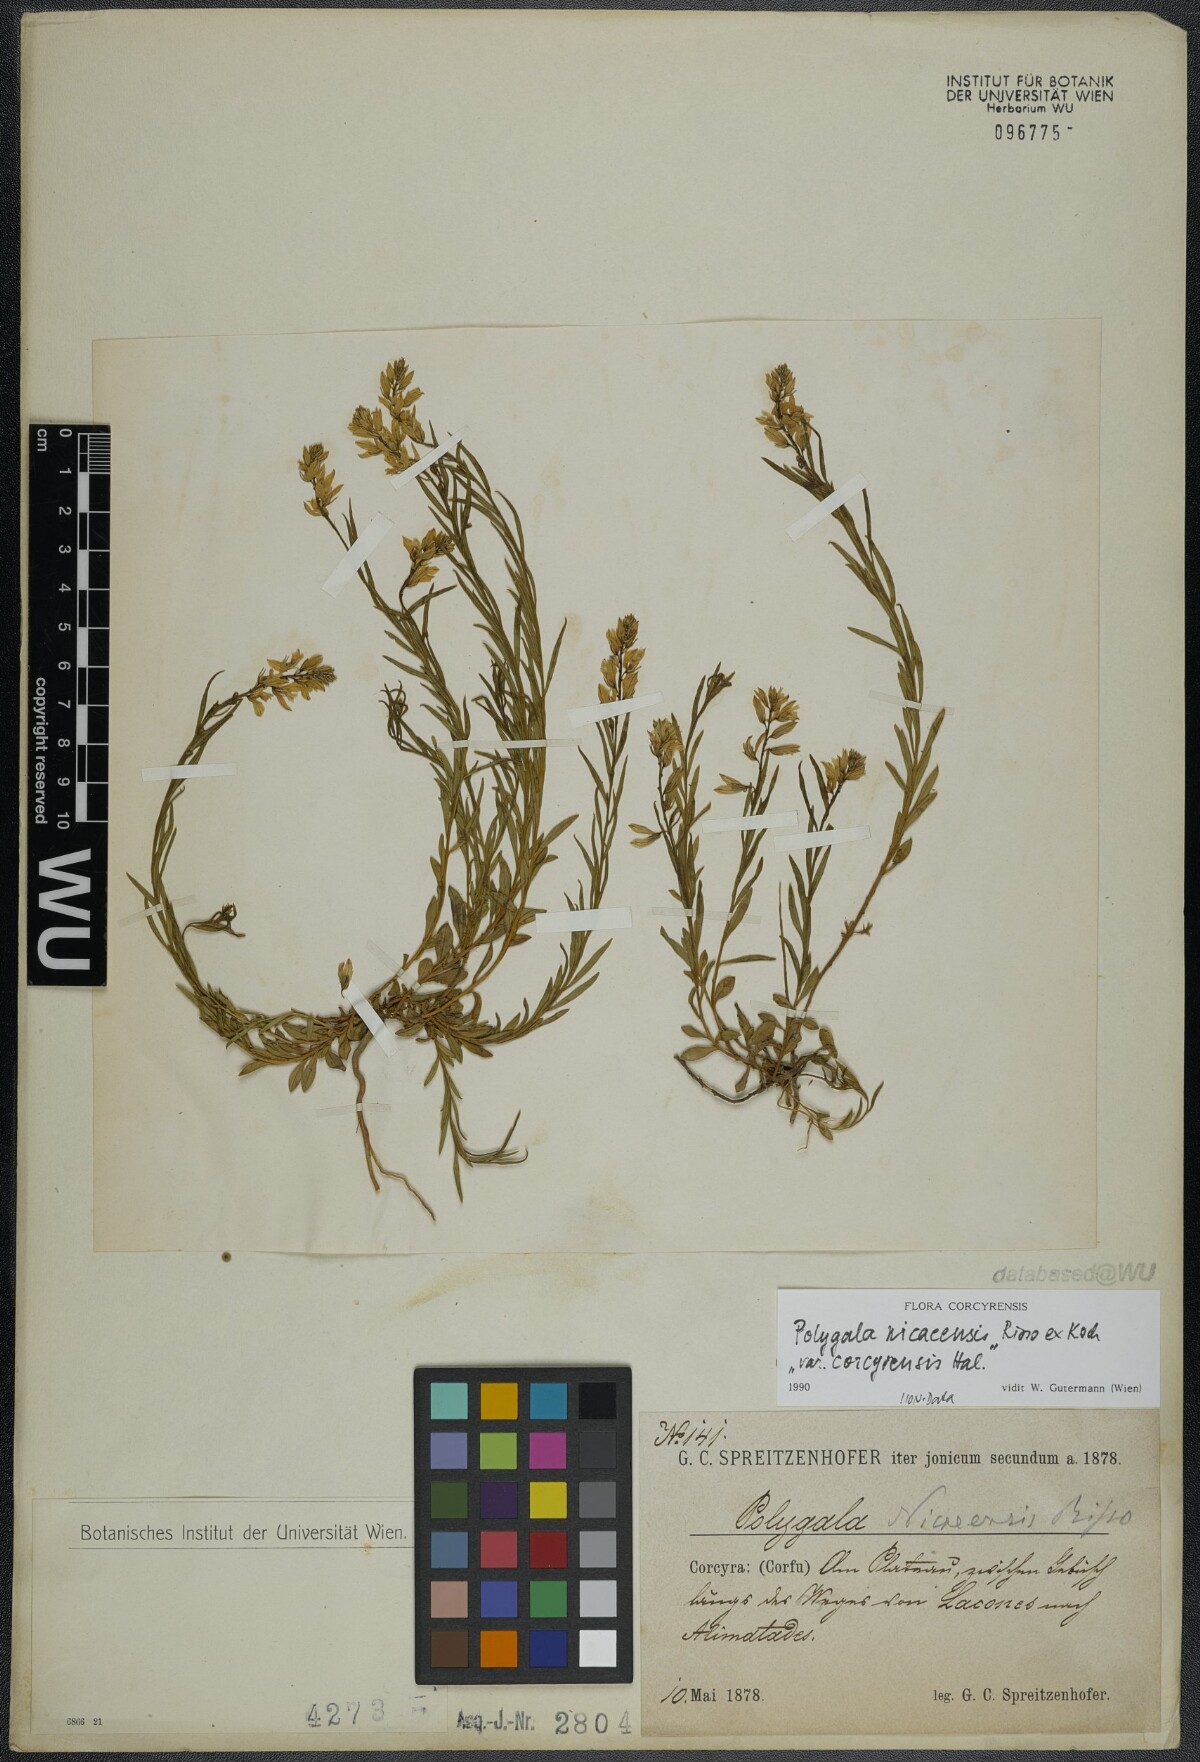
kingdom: Plantae
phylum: Tracheophyta
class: Magnoliopsida
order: Fabales
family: Polygalaceae
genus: Polygala
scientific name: Polygala nicaeensis
